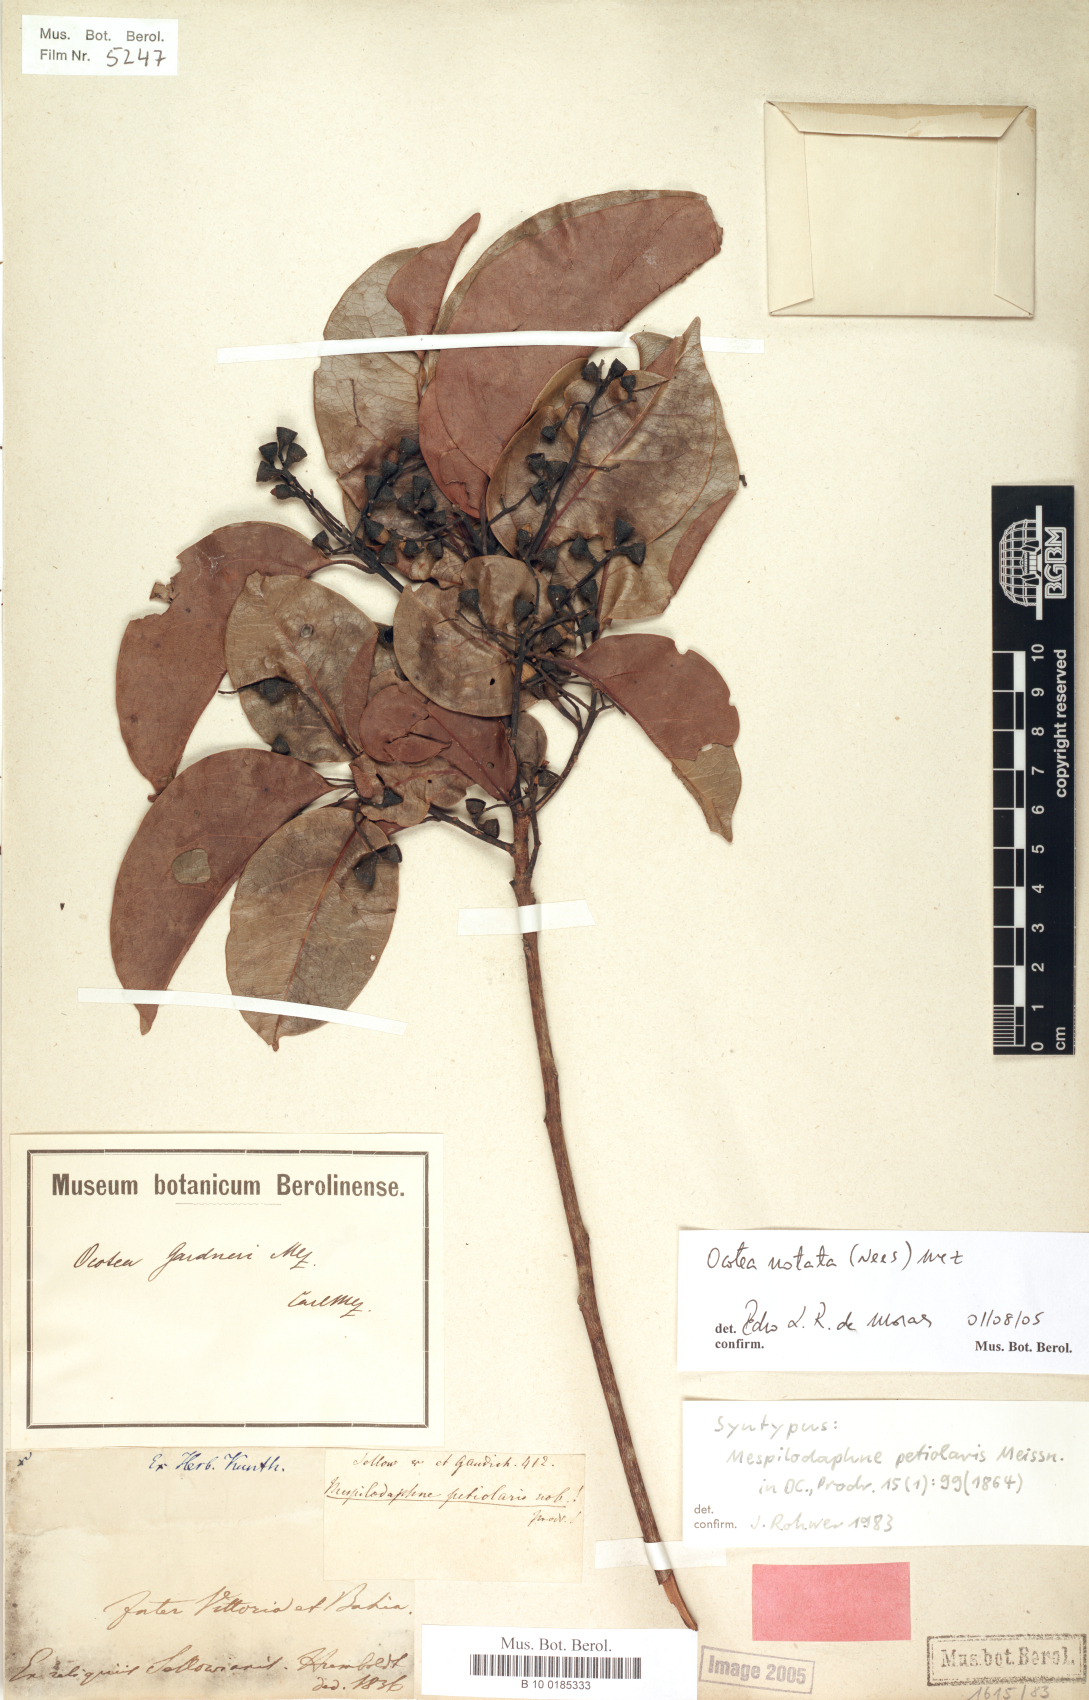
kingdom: Plantae
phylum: Tracheophyta
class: Magnoliopsida
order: Laurales
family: Lauraceae
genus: Mespilodaphne
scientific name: Mespilodaphne notata
